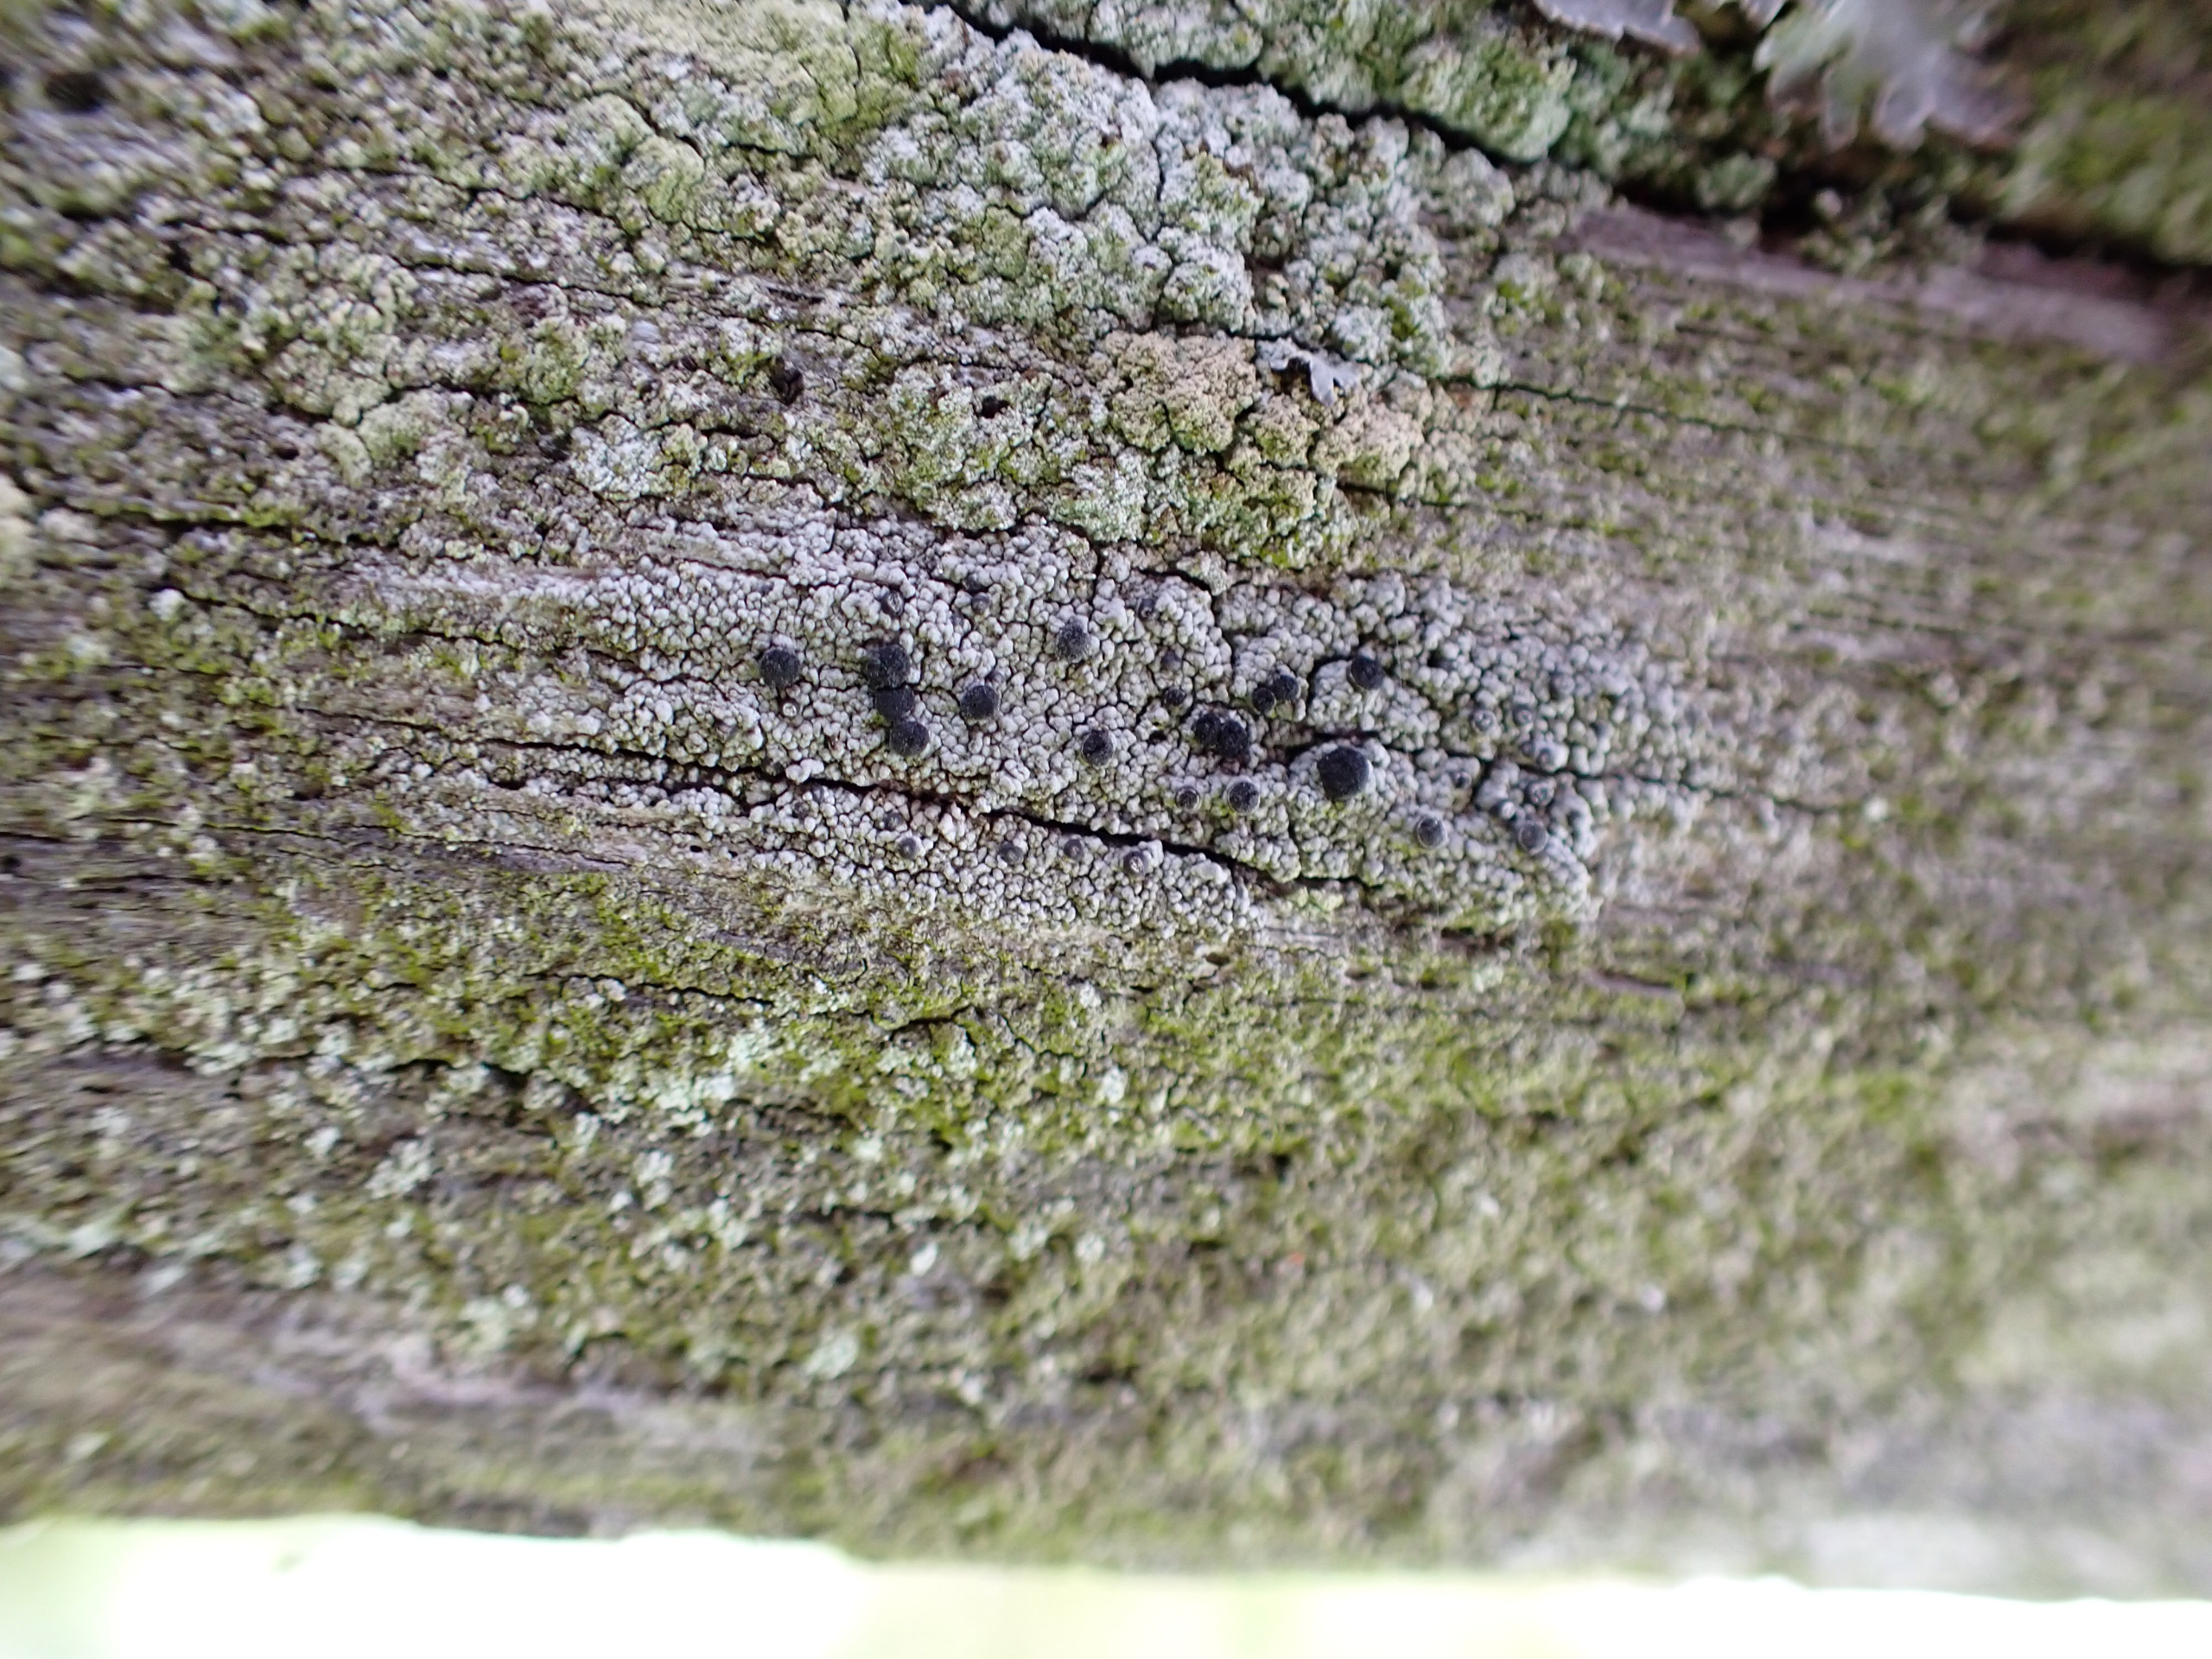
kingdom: Fungi
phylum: Ascomycota
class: Lecanoromycetes
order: Caliciales
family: Caliciaceae
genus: Acolium
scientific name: Acolium inquinans
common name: Siddende sodlav
